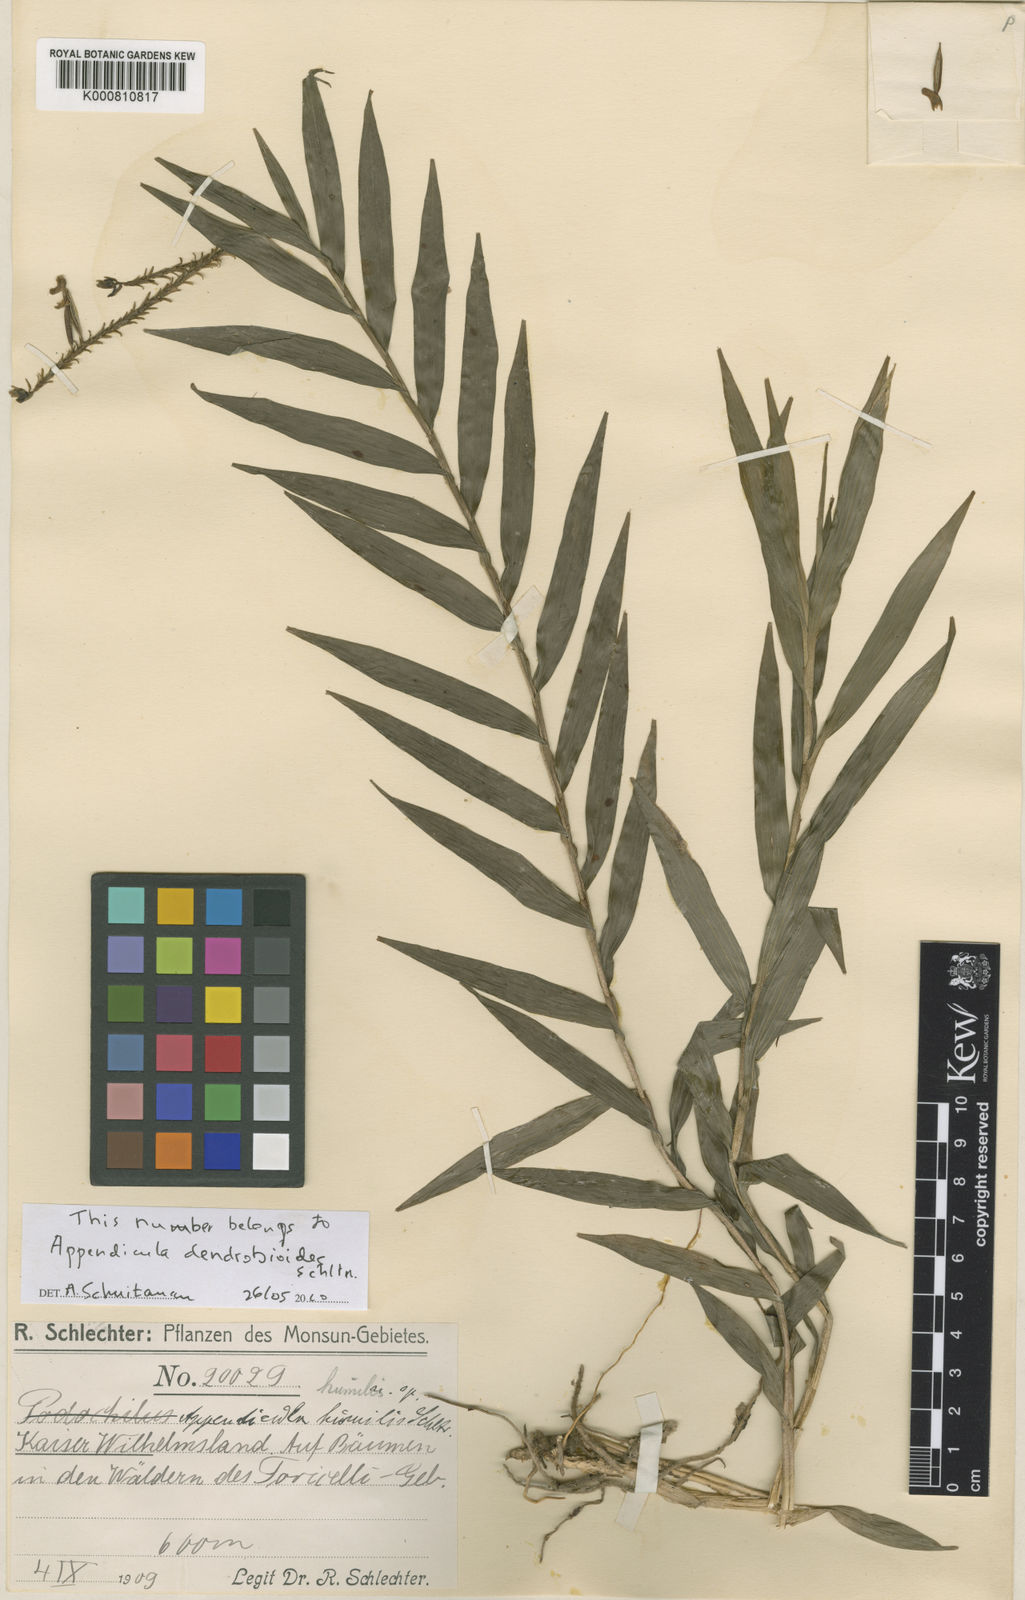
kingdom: Plantae
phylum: Tracheophyta
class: Liliopsida
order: Asparagales
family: Orchidaceae
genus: Appendicula
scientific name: Appendicula pendula
